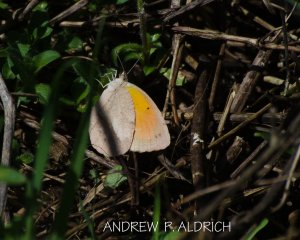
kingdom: Animalia
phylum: Arthropoda
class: Insecta
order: Lepidoptera
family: Pieridae
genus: Abaeis
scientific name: Abaeis nicippe
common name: Sleepy Orange
